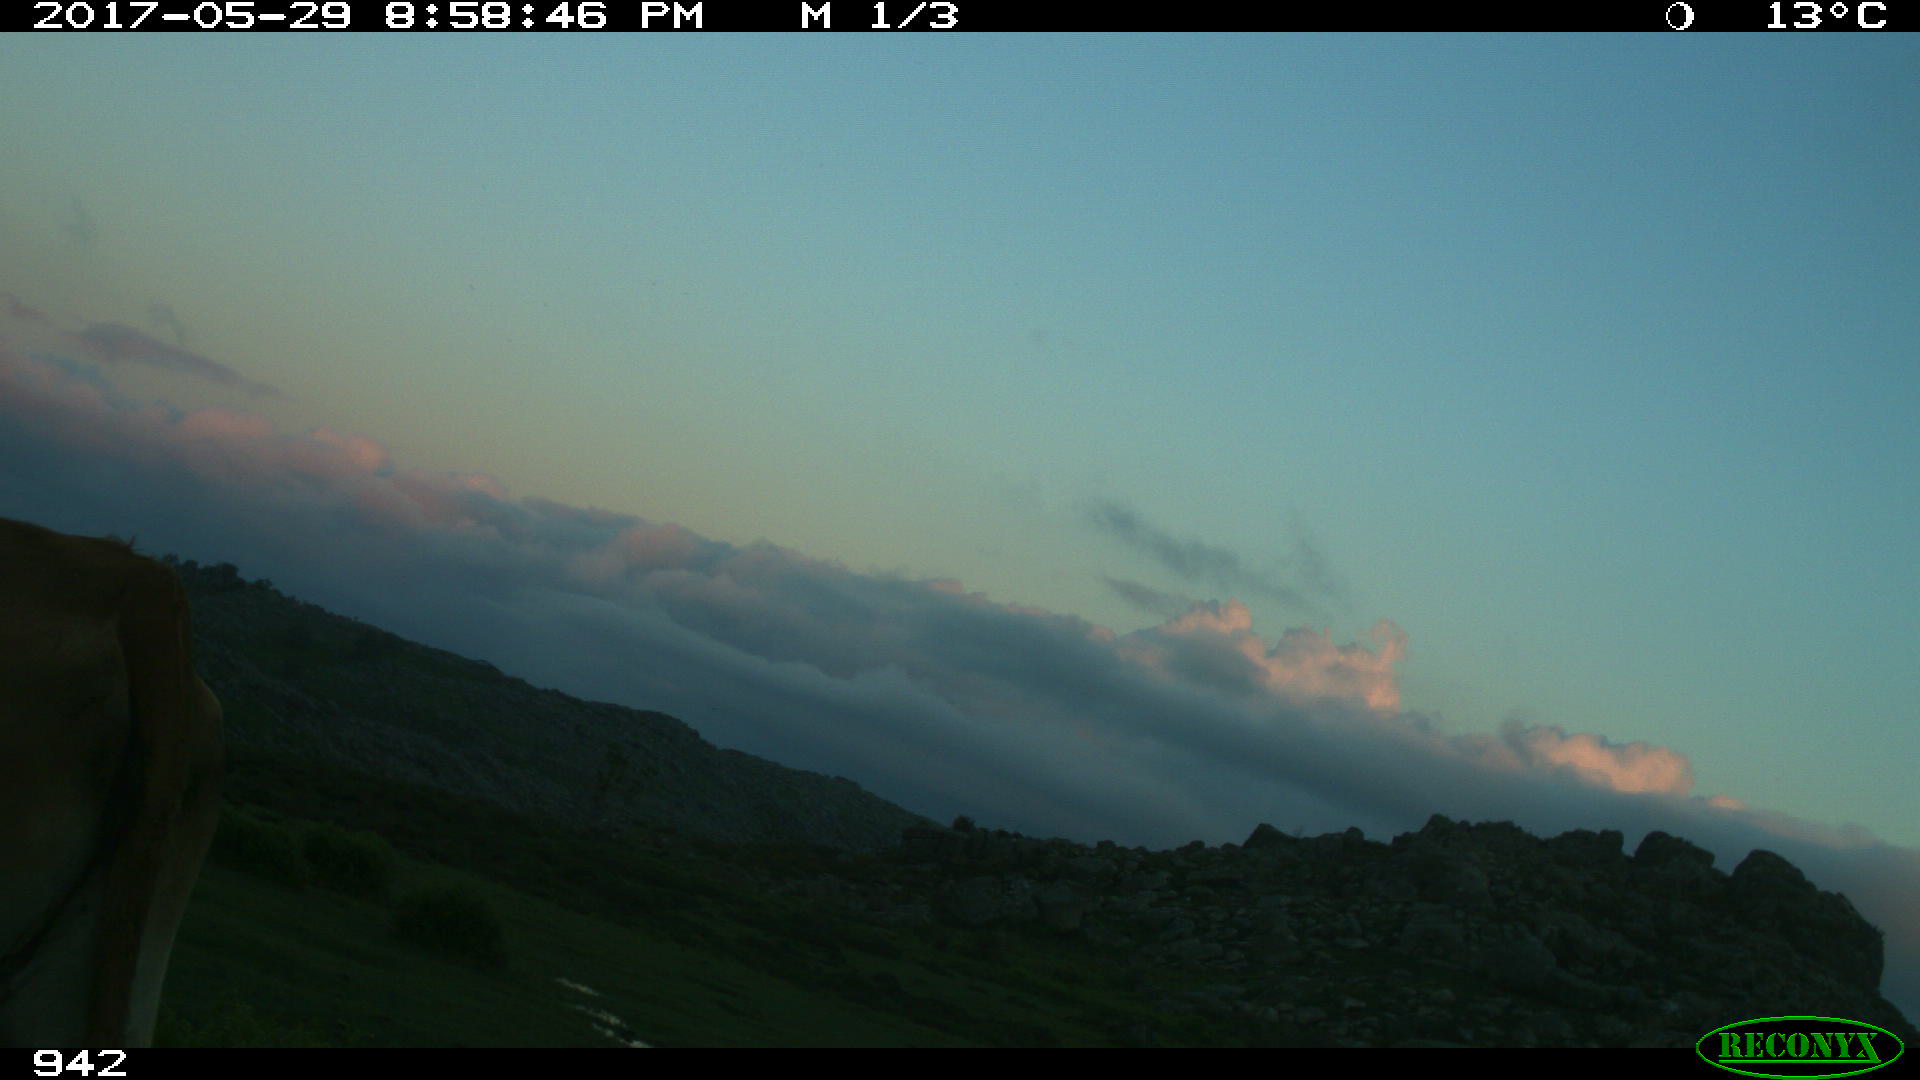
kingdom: Animalia
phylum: Chordata
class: Mammalia
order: Artiodactyla
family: Bovidae
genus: Bos
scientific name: Bos taurus
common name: Domesticated cattle
